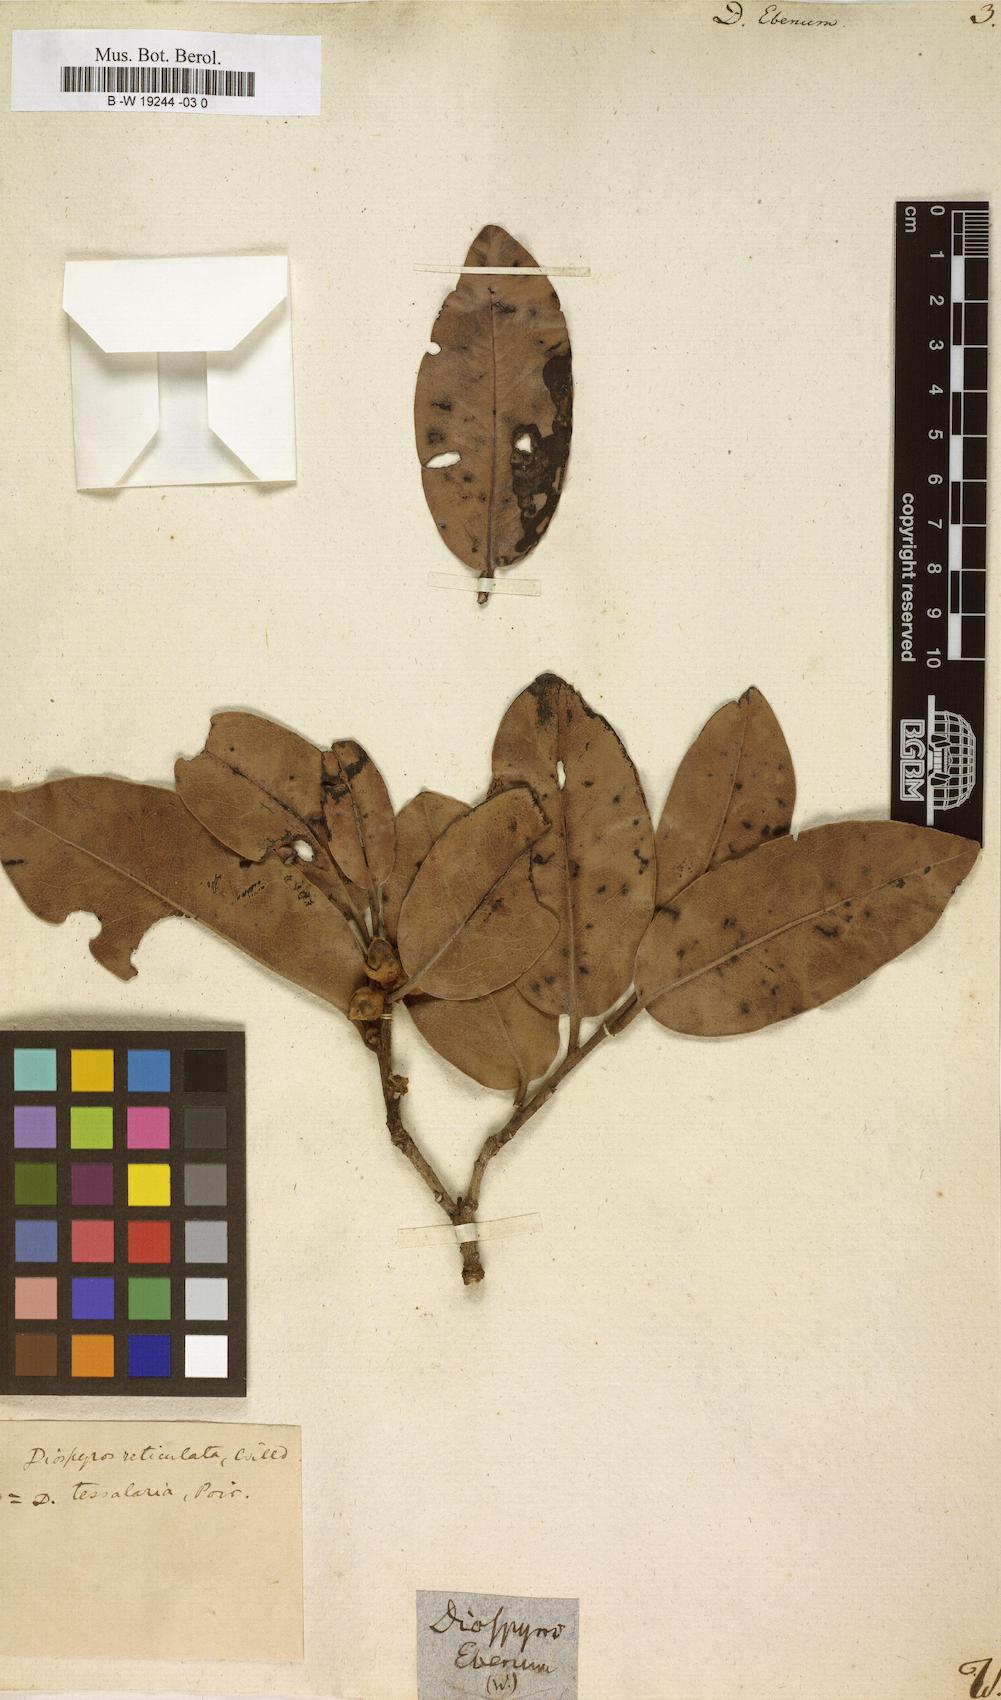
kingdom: Plantae
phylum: Tracheophyta
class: Magnoliopsida
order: Ericales
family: Ebenaceae
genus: Diospyros
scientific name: Diospyros ebenum
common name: Ebony
